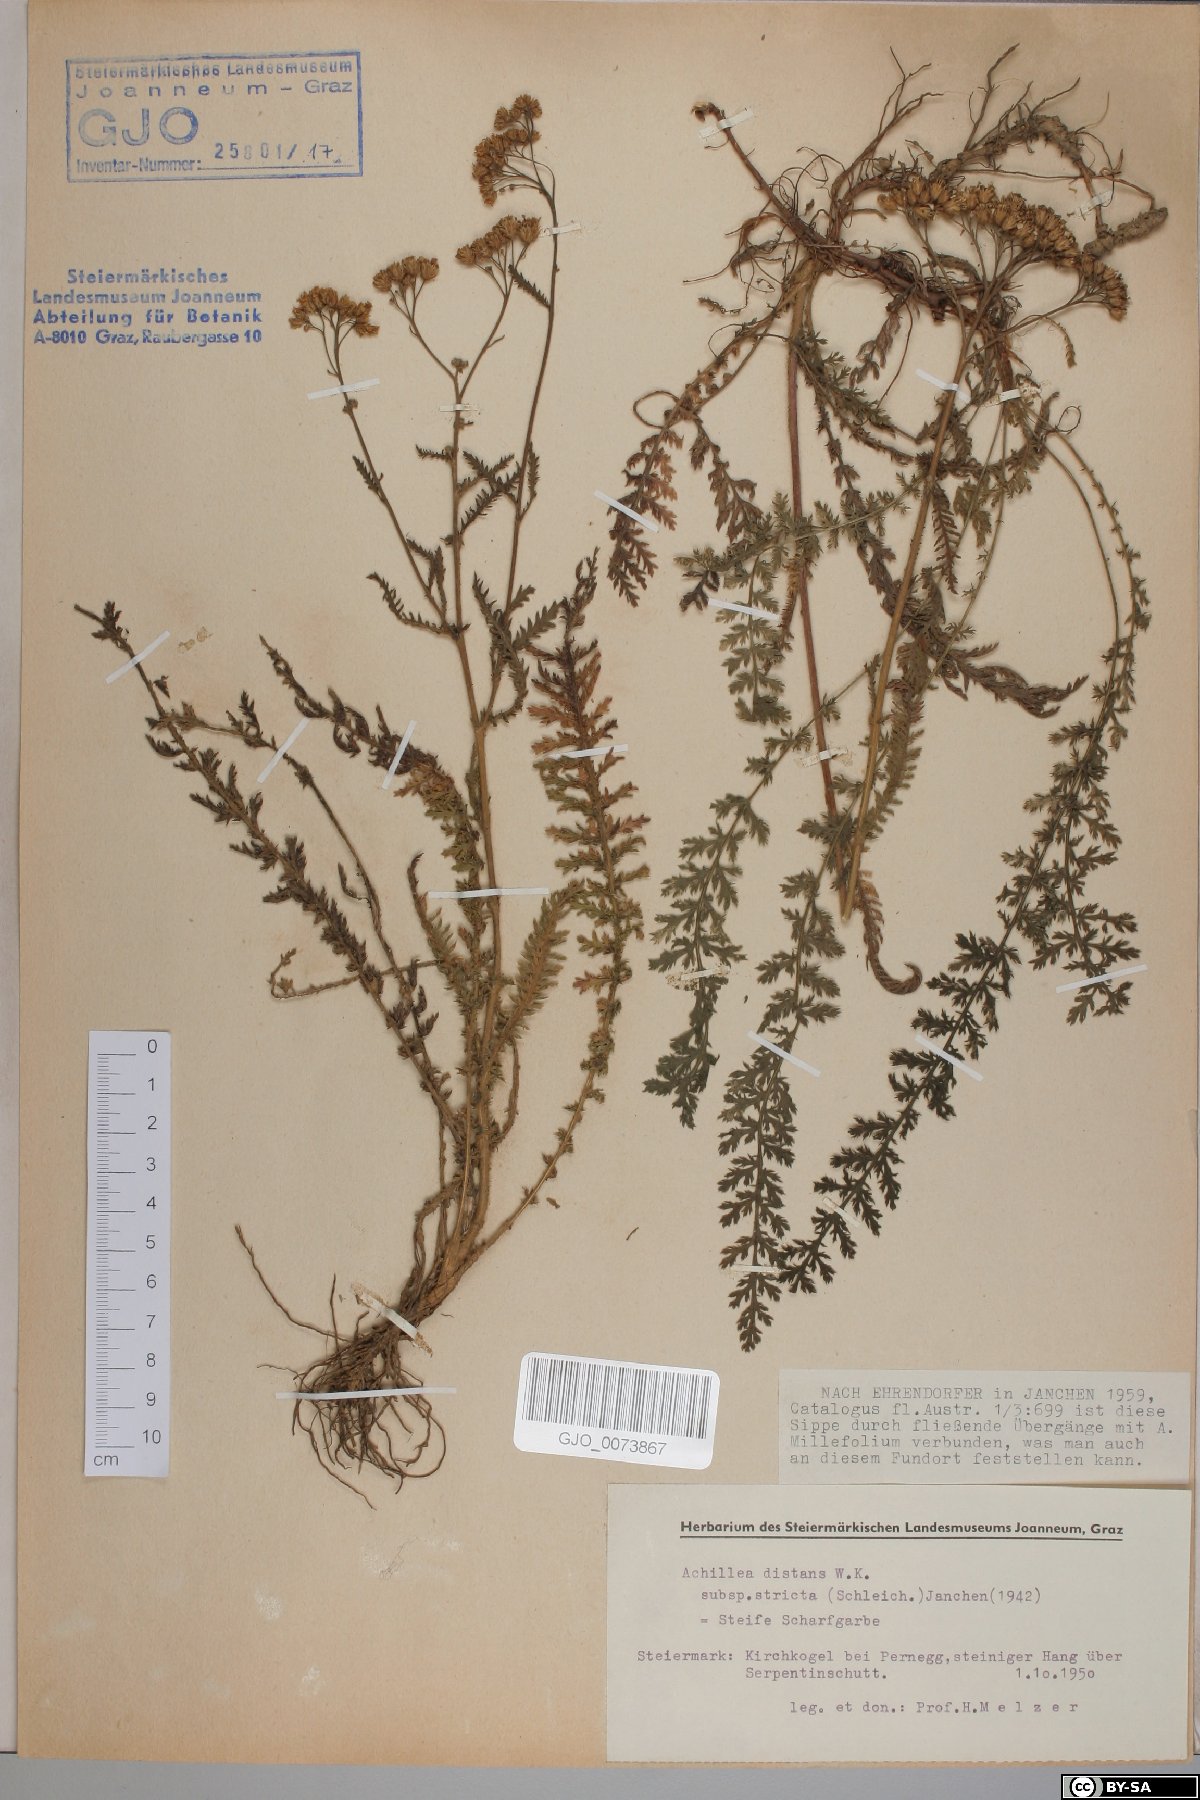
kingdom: Plantae
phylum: Tracheophyta
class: Magnoliopsida
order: Asterales
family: Asteraceae
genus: Achillea
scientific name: Achillea distans
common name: Tall yarrow
